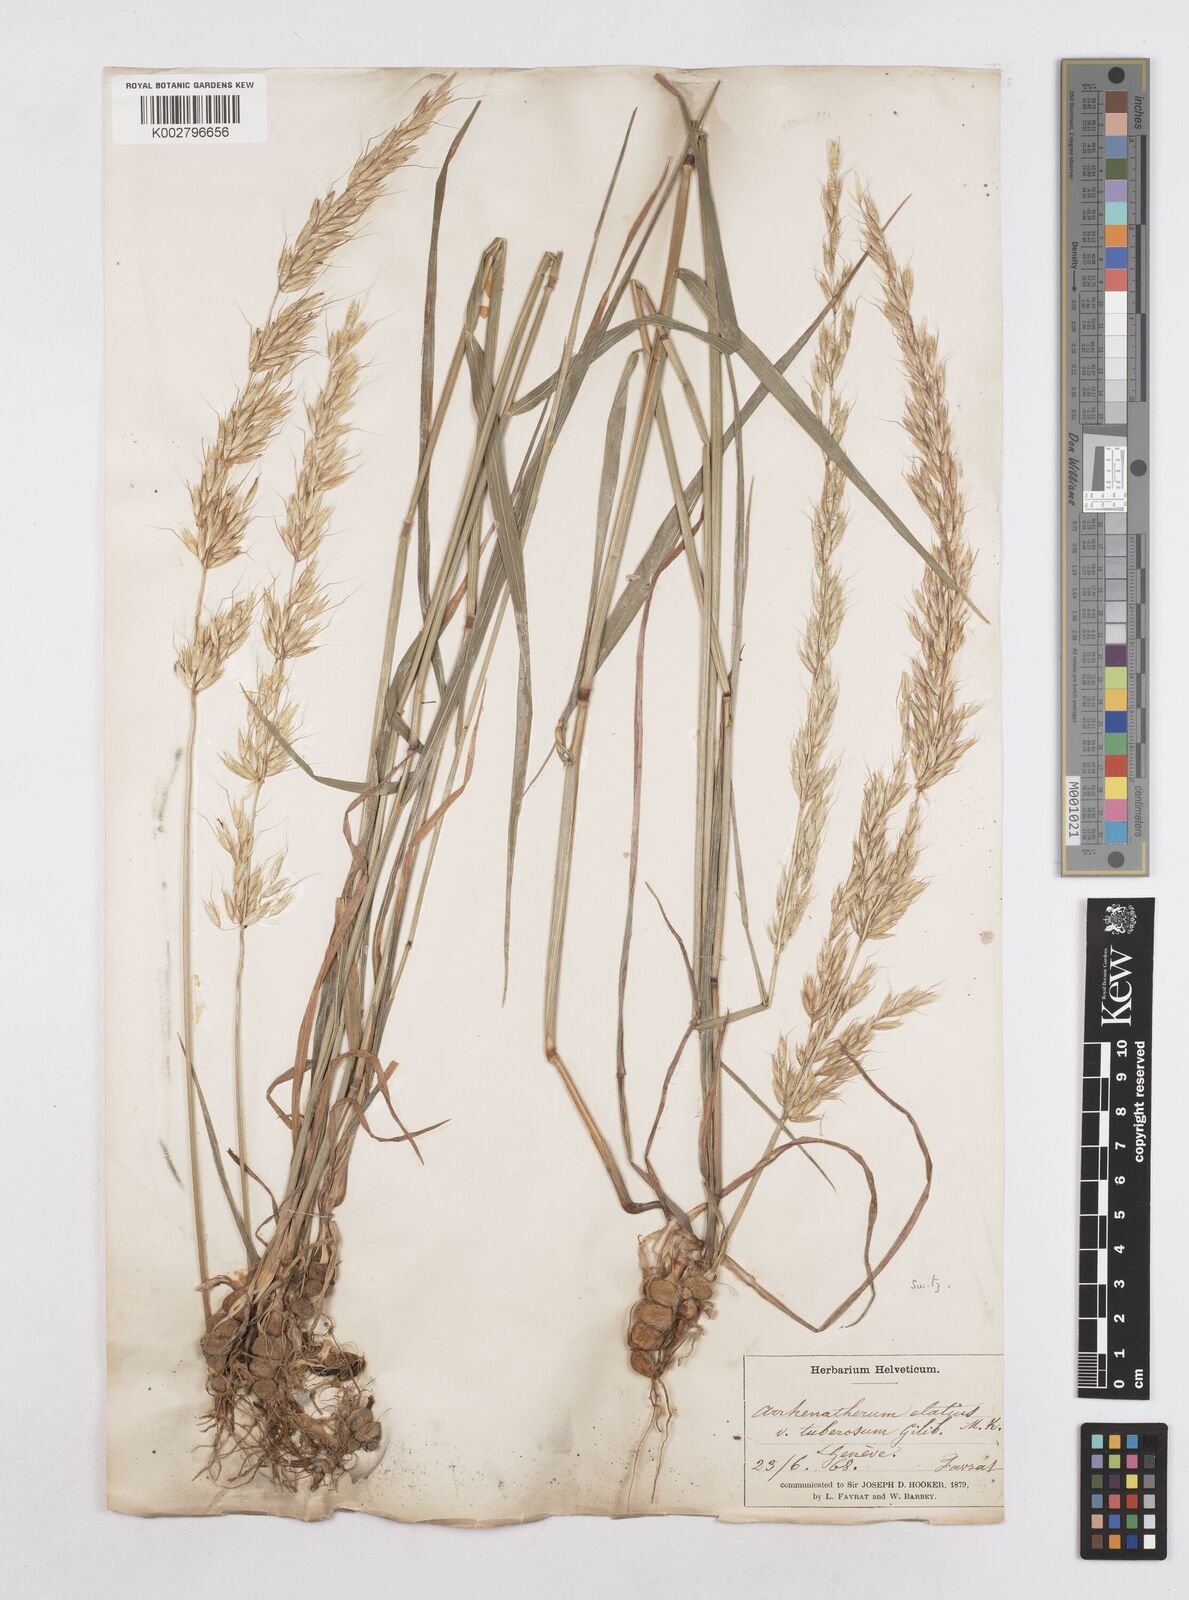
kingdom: Plantae
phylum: Tracheophyta
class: Liliopsida
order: Poales
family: Poaceae
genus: Arrhenatherum
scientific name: Arrhenatherum elatius
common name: Tall oatgrass
